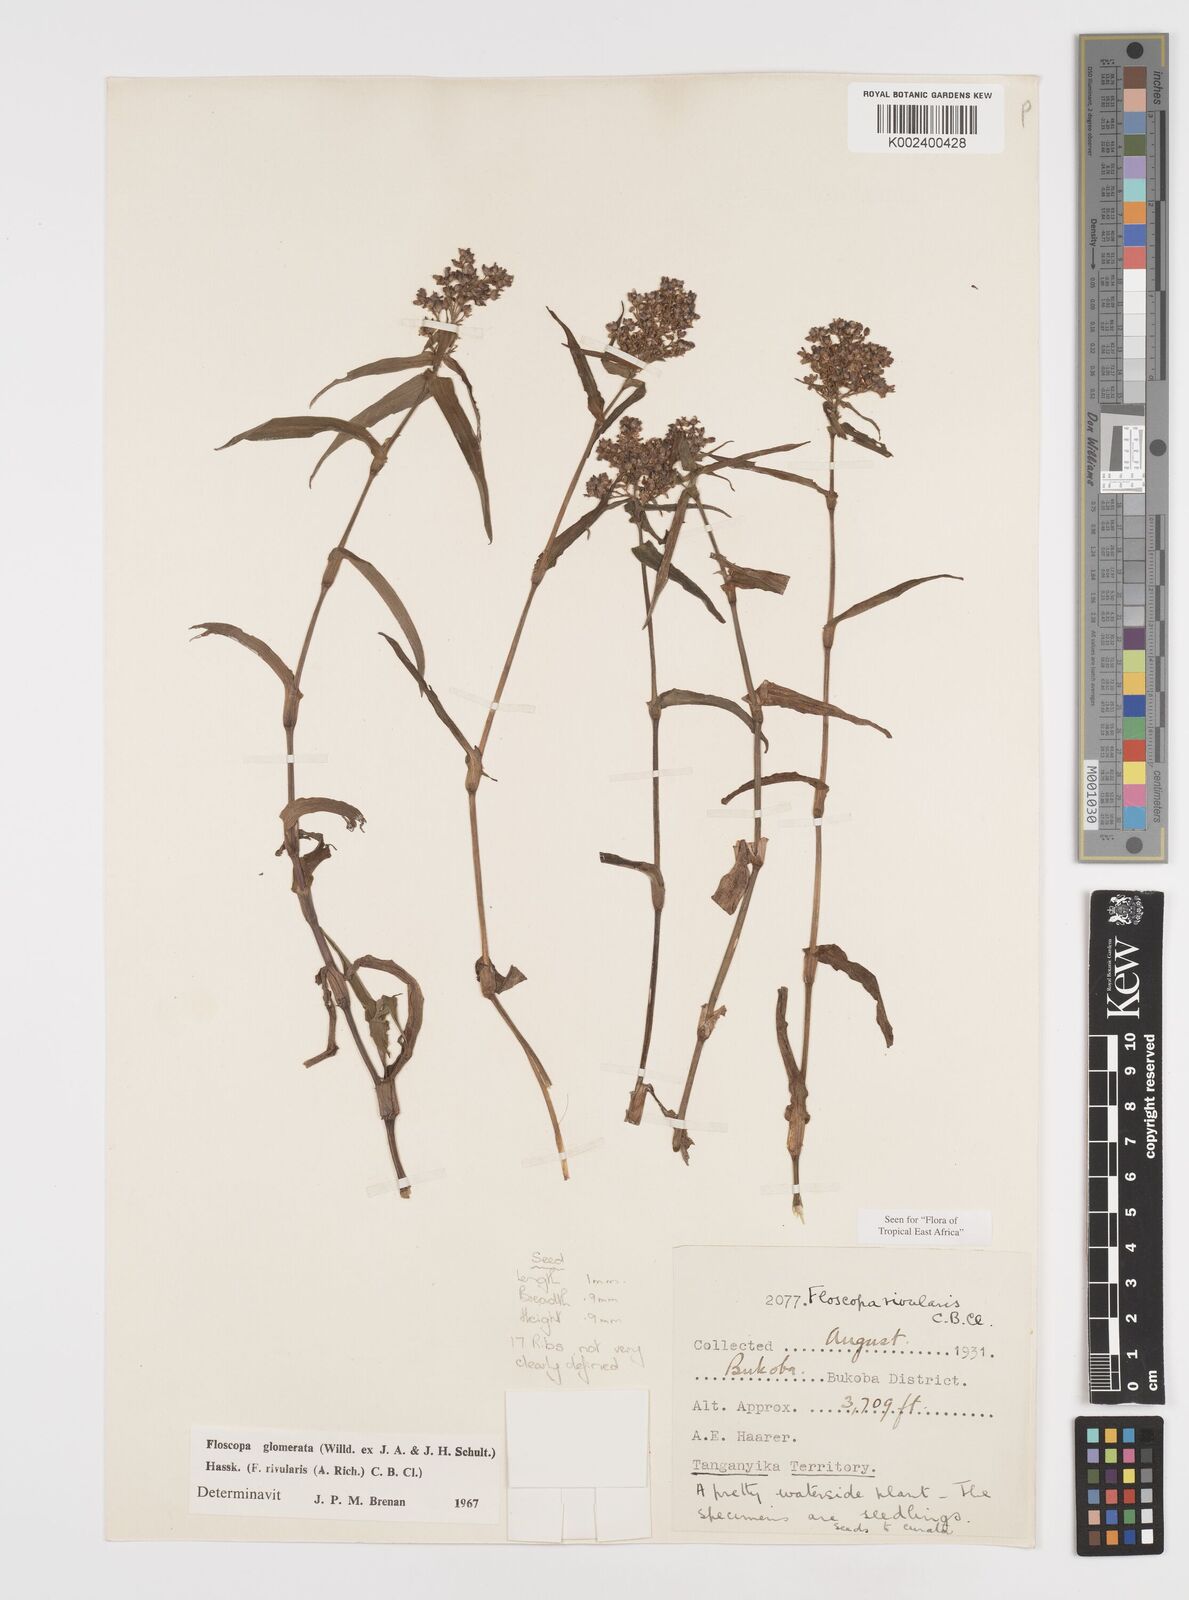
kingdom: Plantae
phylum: Tracheophyta
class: Liliopsida
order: Commelinales
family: Commelinaceae
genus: Floscopa
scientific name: Floscopa glomerata
